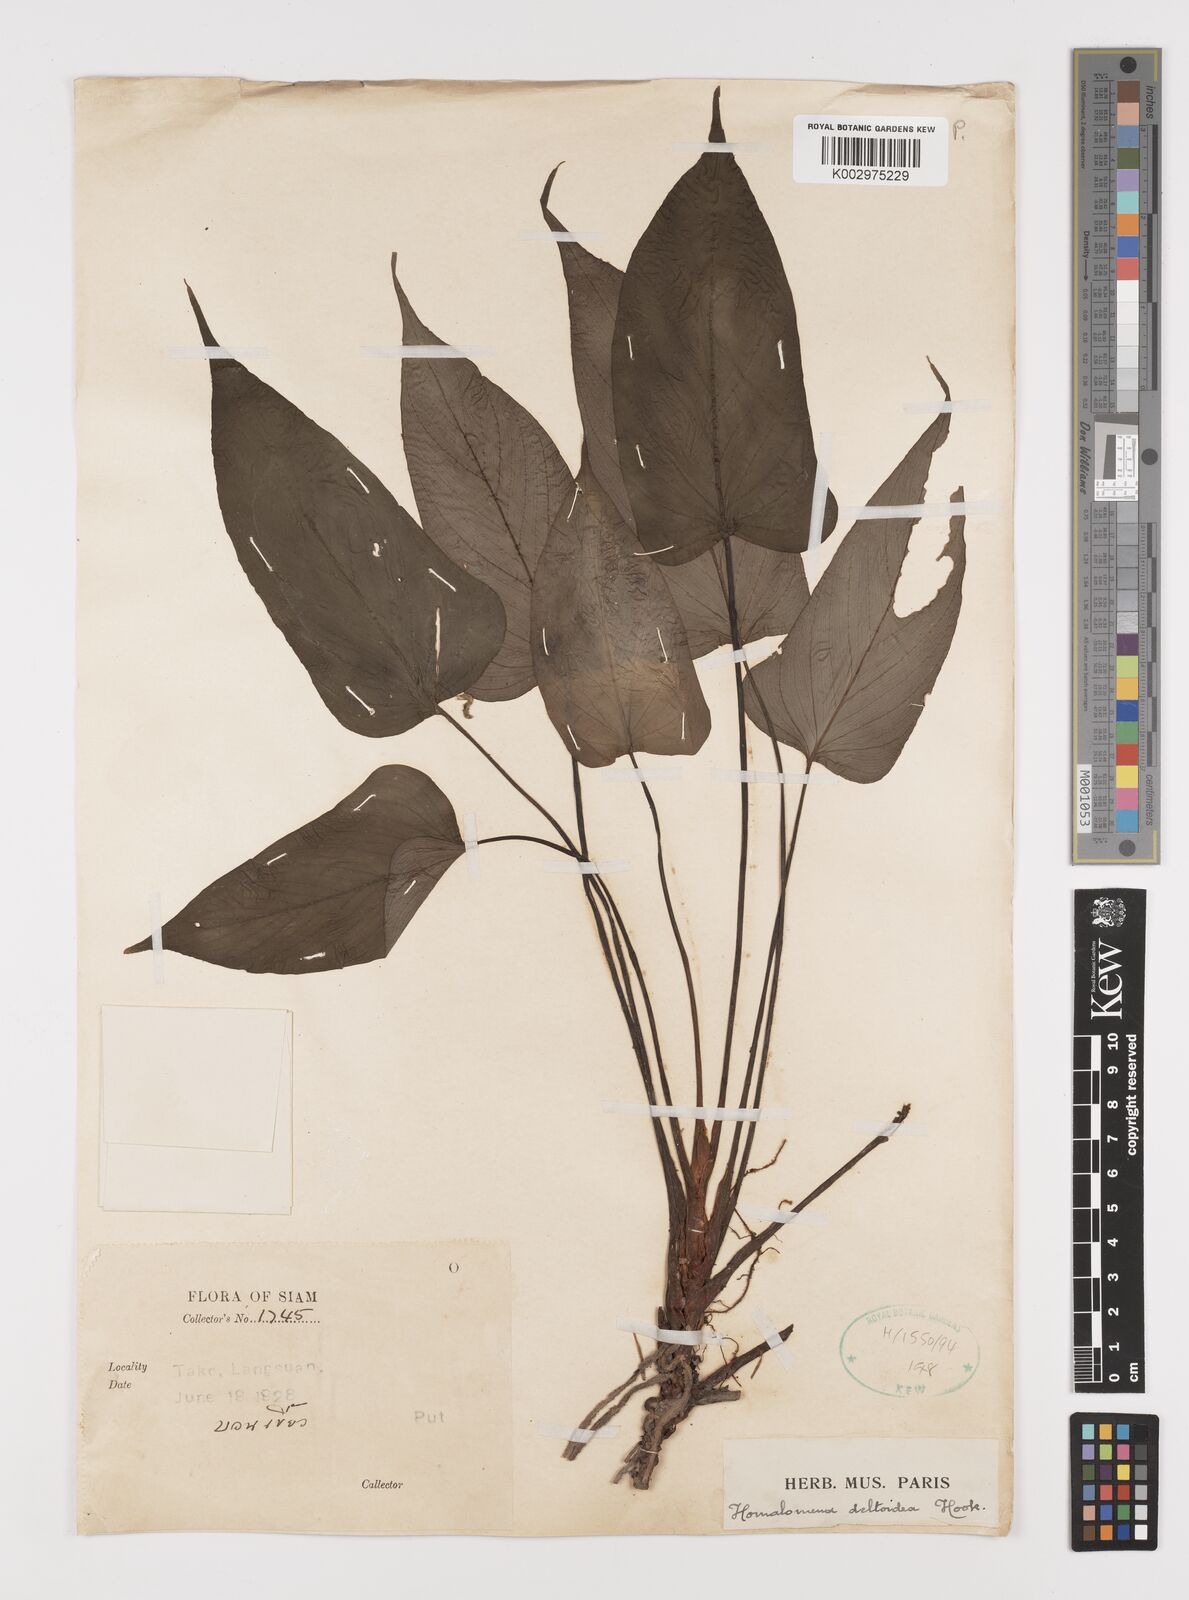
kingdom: Plantae
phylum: Tracheophyta
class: Liliopsida
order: Alismatales
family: Araceae
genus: Homalomena
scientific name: Homalomena griffithii
